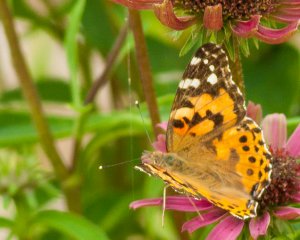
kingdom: Animalia
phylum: Arthropoda
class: Insecta
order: Lepidoptera
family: Nymphalidae
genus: Vanessa
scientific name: Vanessa
